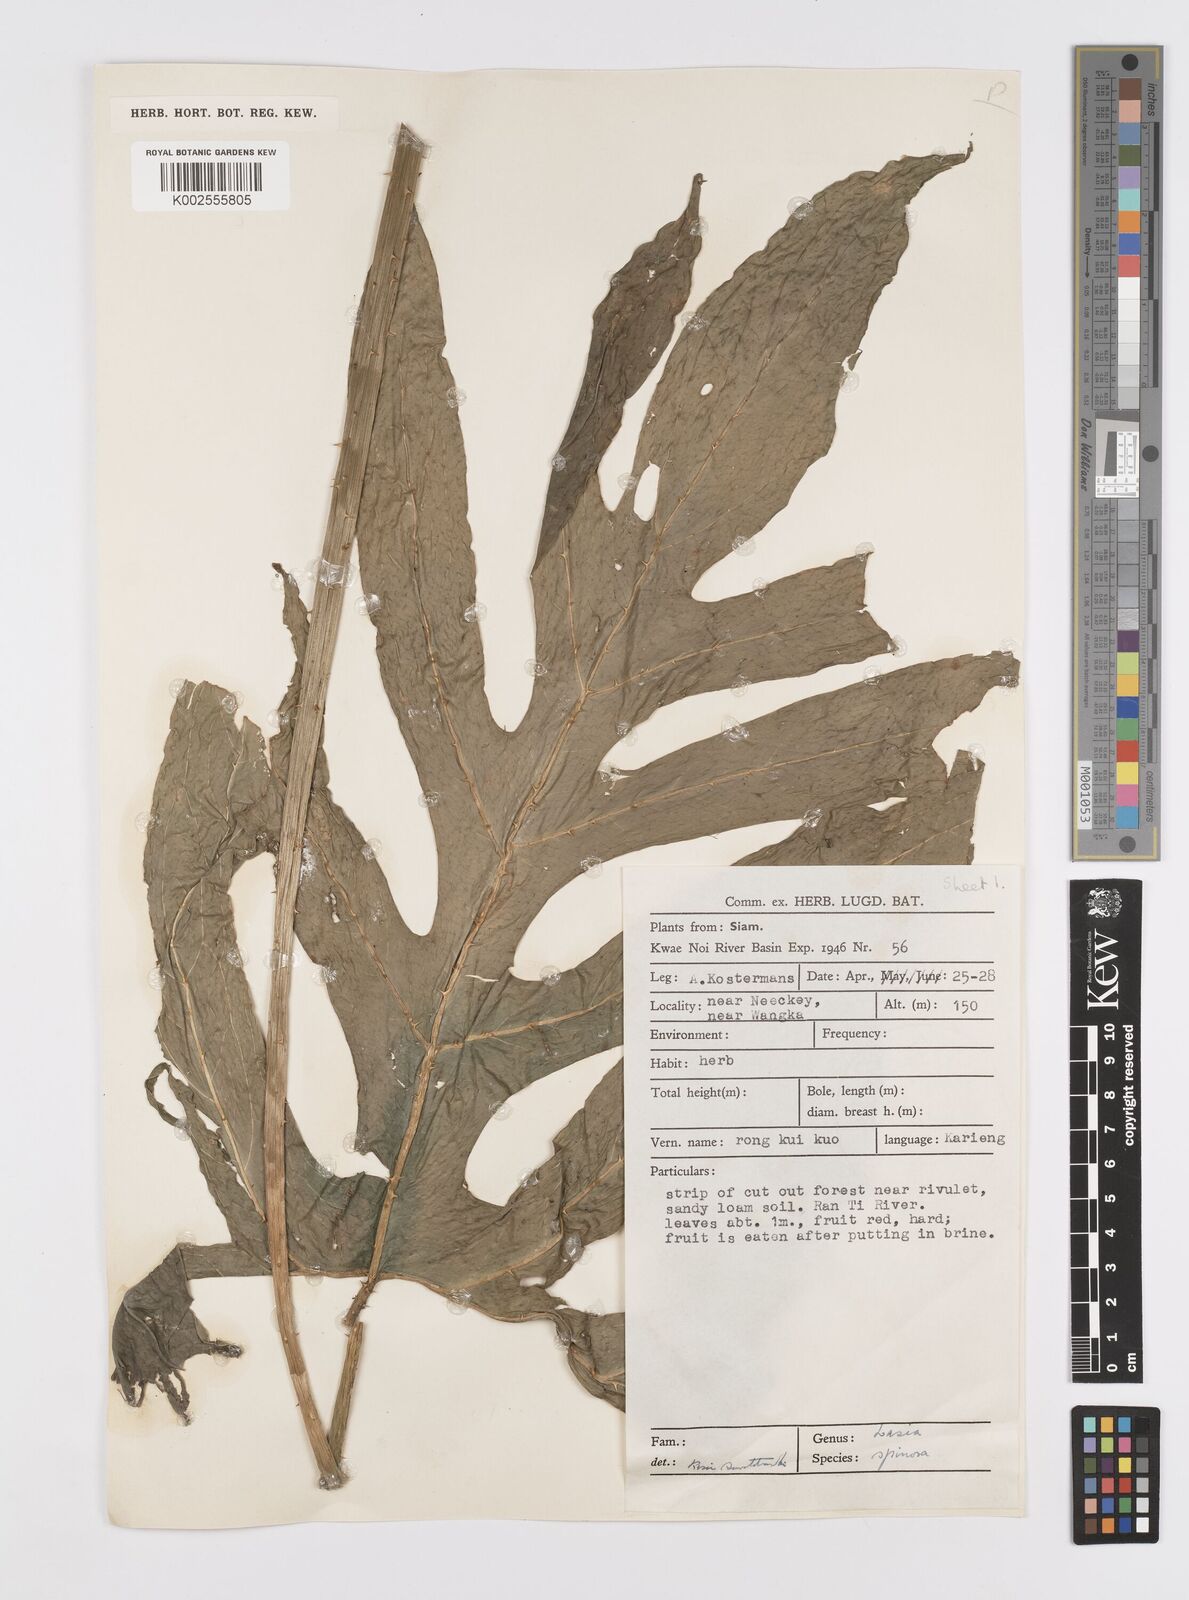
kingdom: Plantae
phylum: Tracheophyta
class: Liliopsida
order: Alismatales
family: Araceae
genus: Lasia
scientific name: Lasia spinosa
